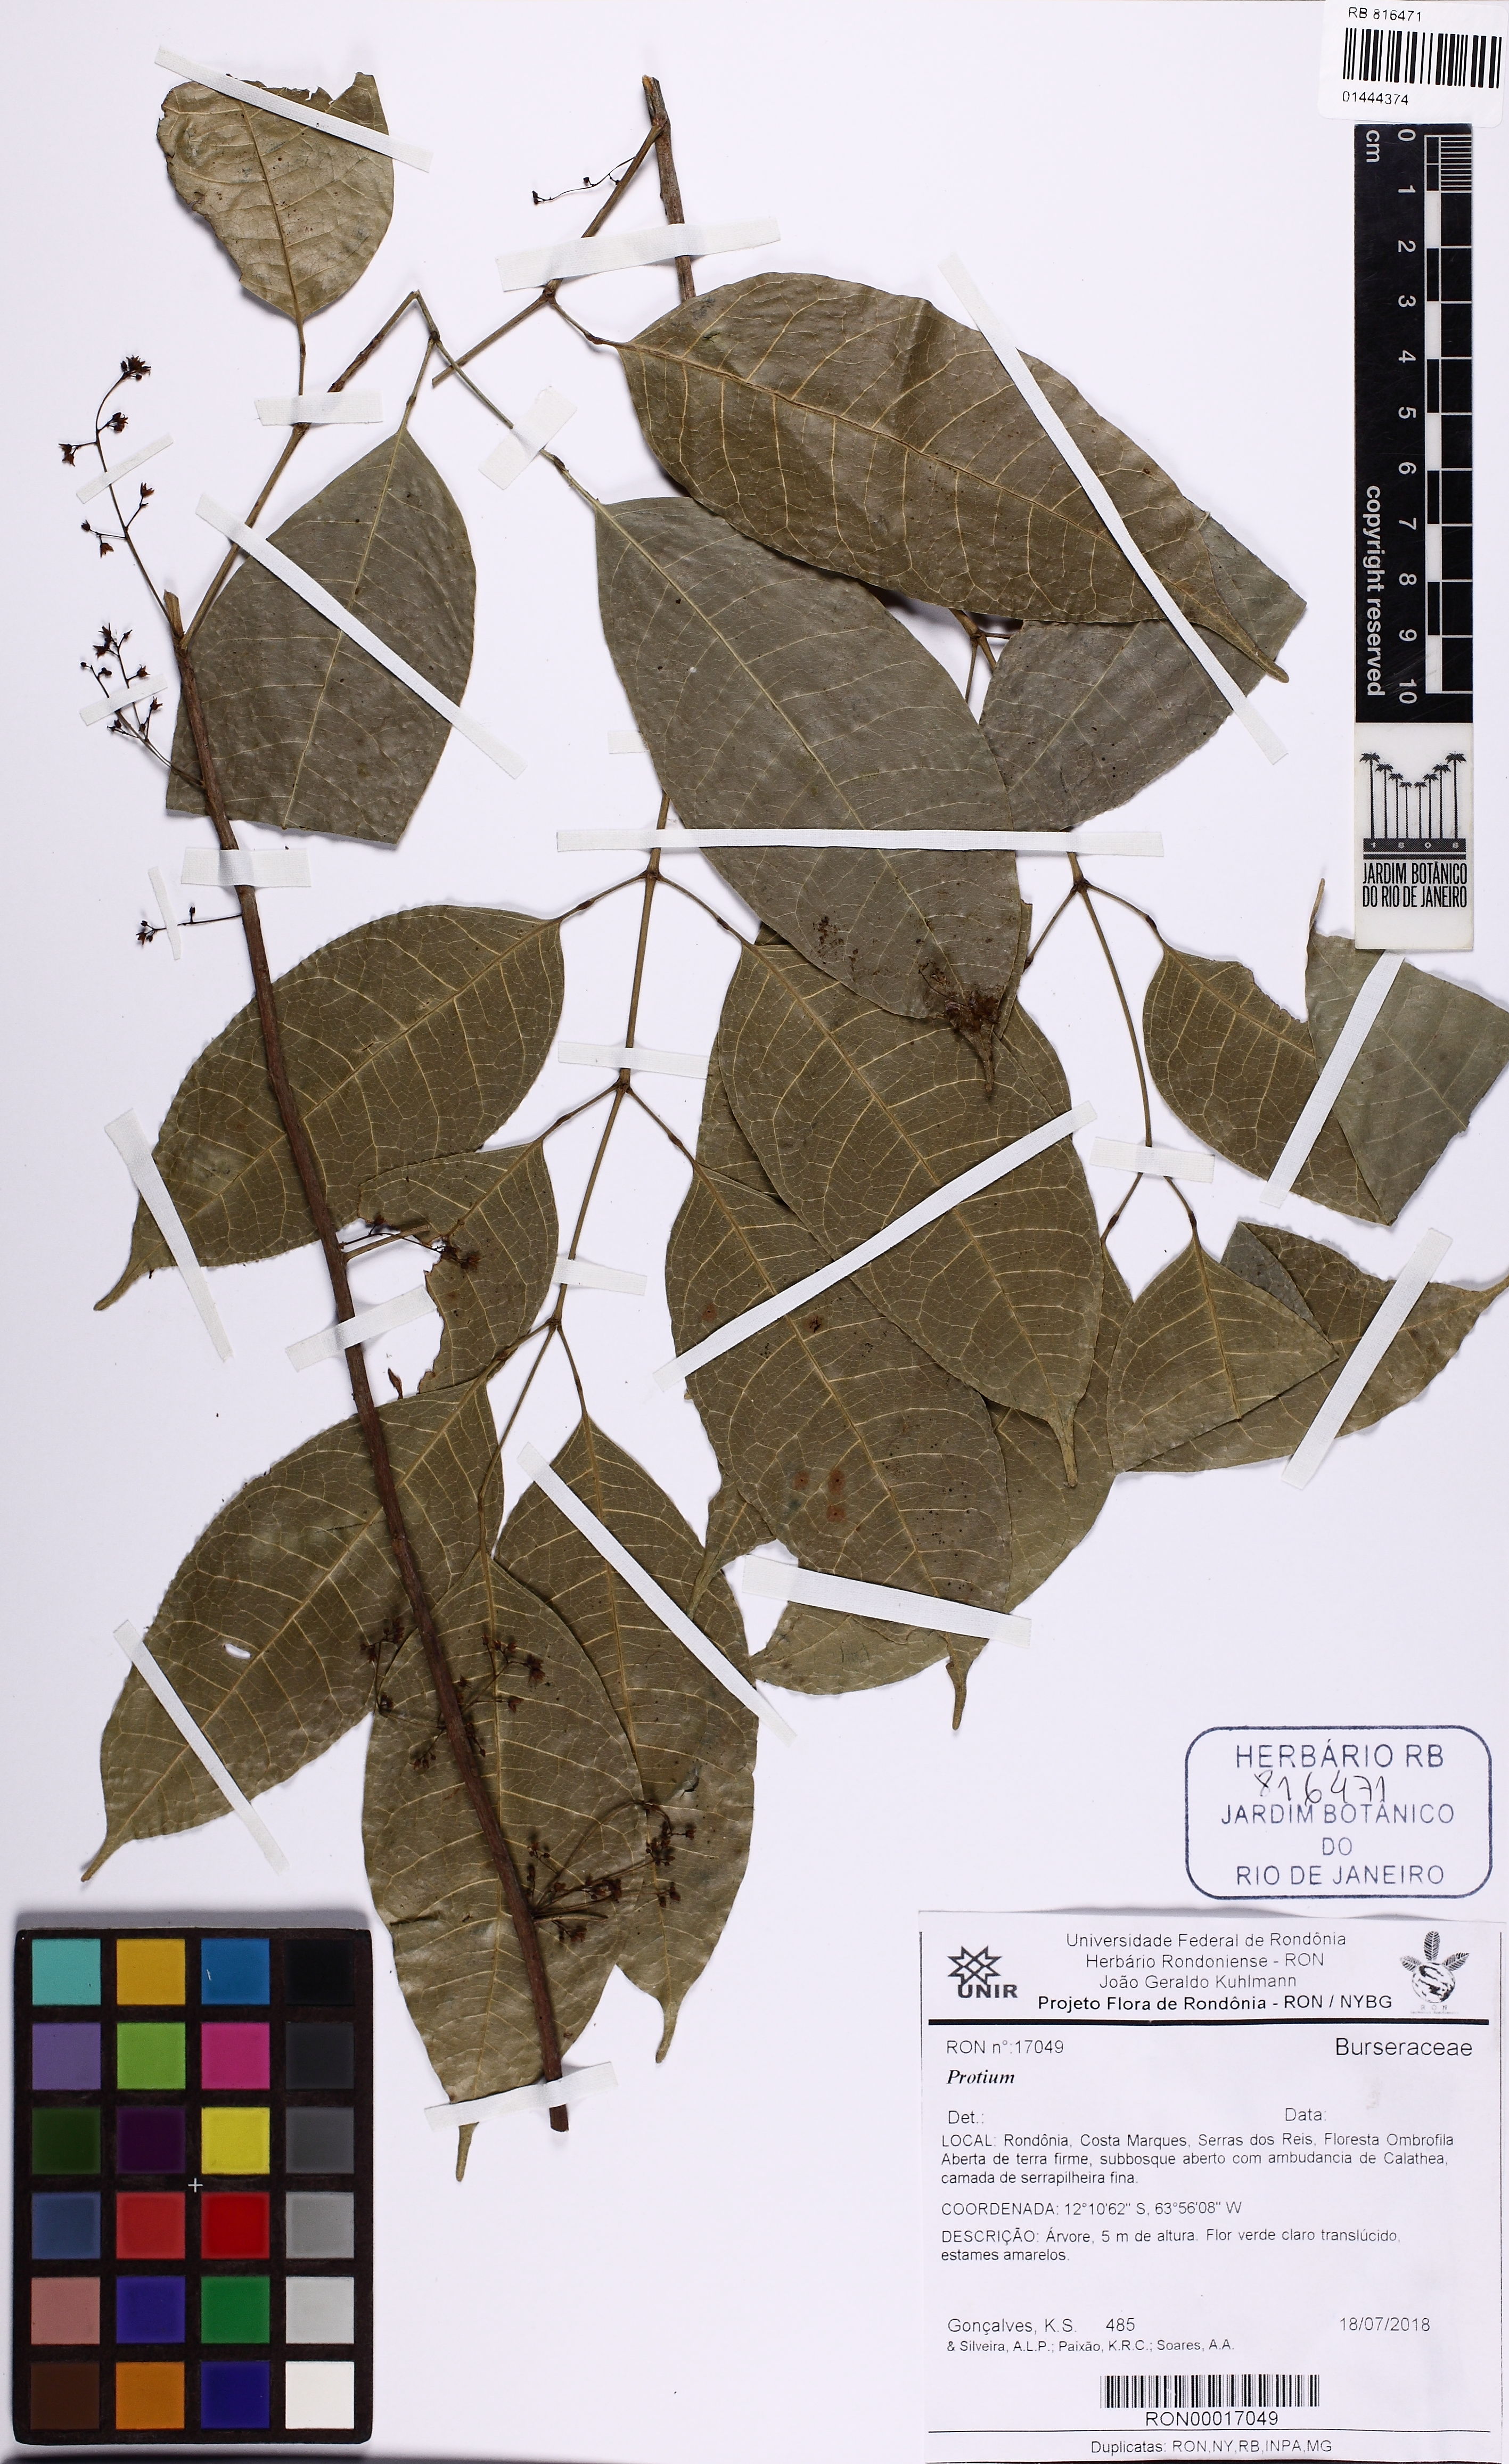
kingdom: Plantae
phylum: Tracheophyta
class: Magnoliopsida
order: Sapindales
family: Burseraceae
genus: Protium
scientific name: Protium
